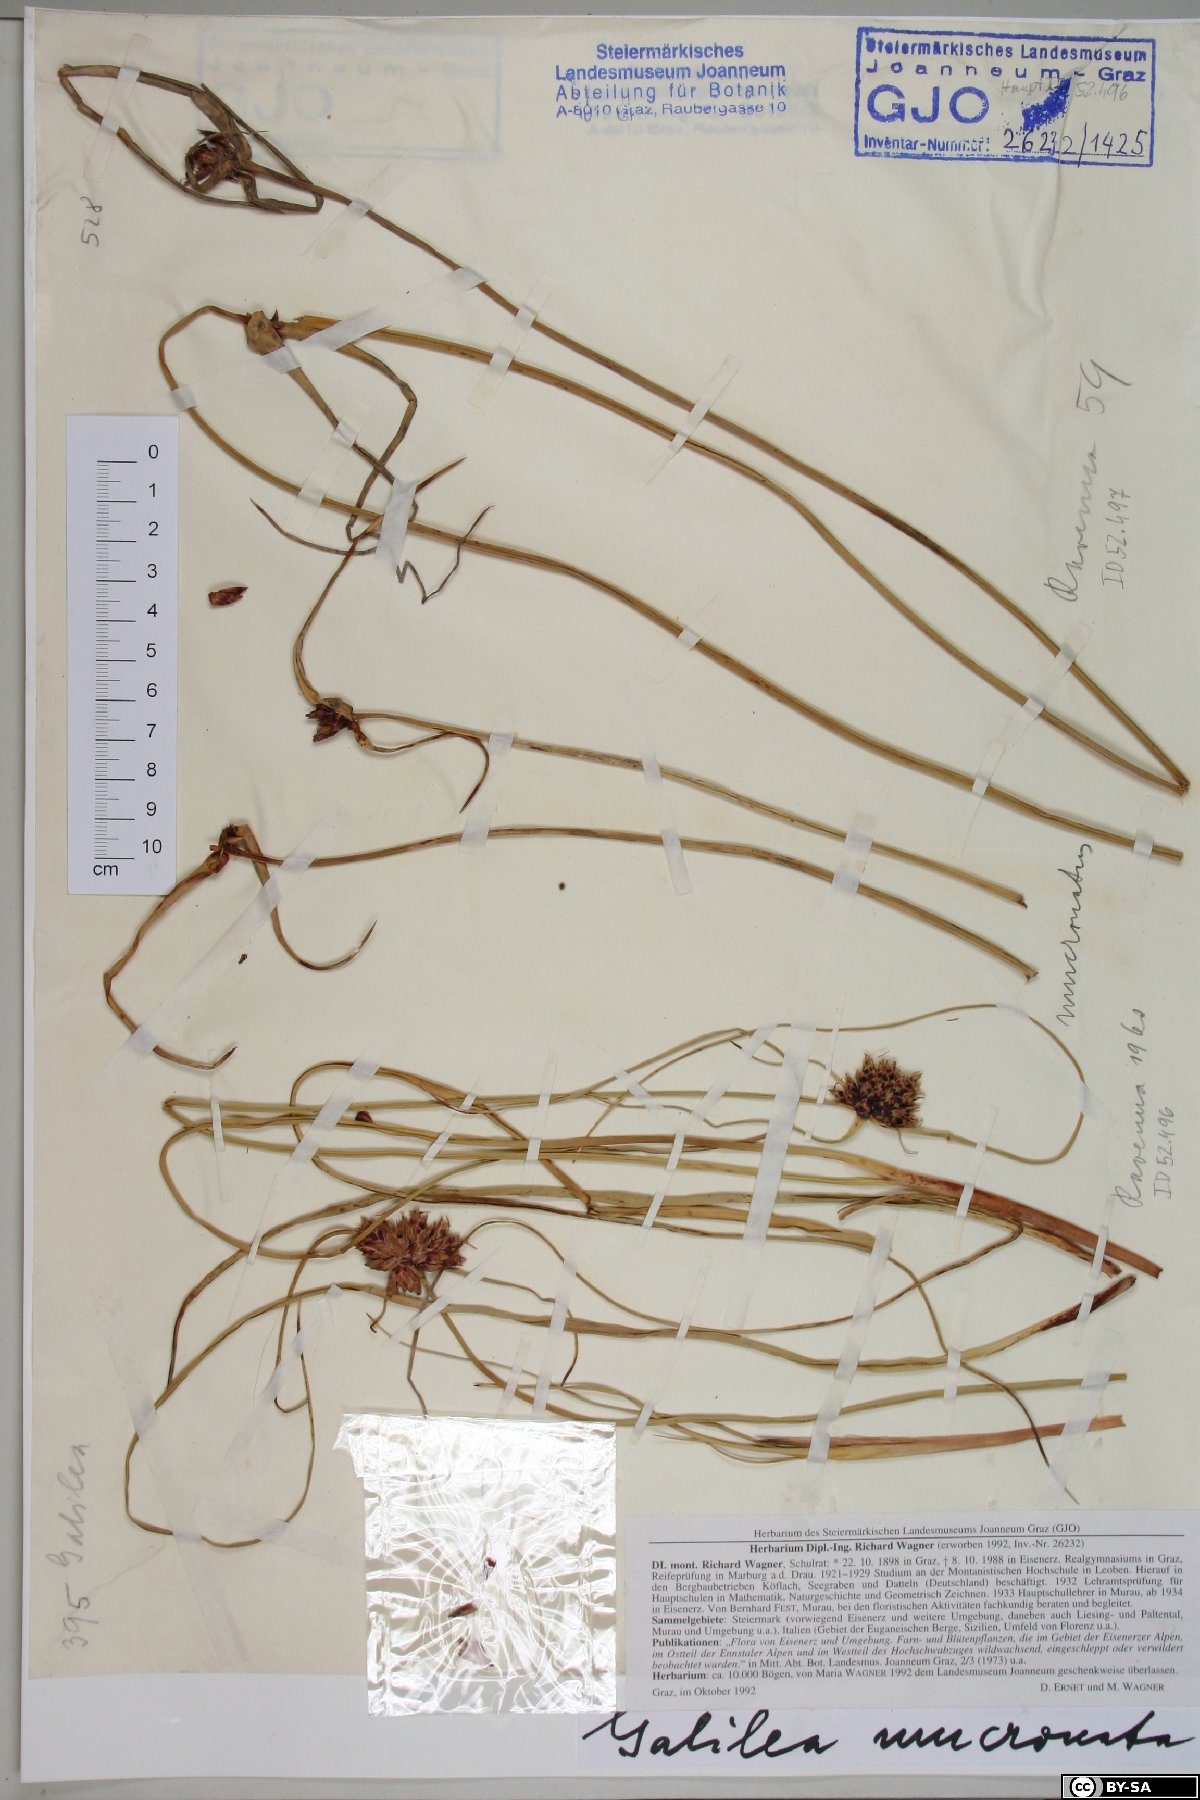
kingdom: Plantae
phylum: Tracheophyta
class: Liliopsida
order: Poales
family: Cyperaceae
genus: Cyperus
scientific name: Cyperus capitatus
